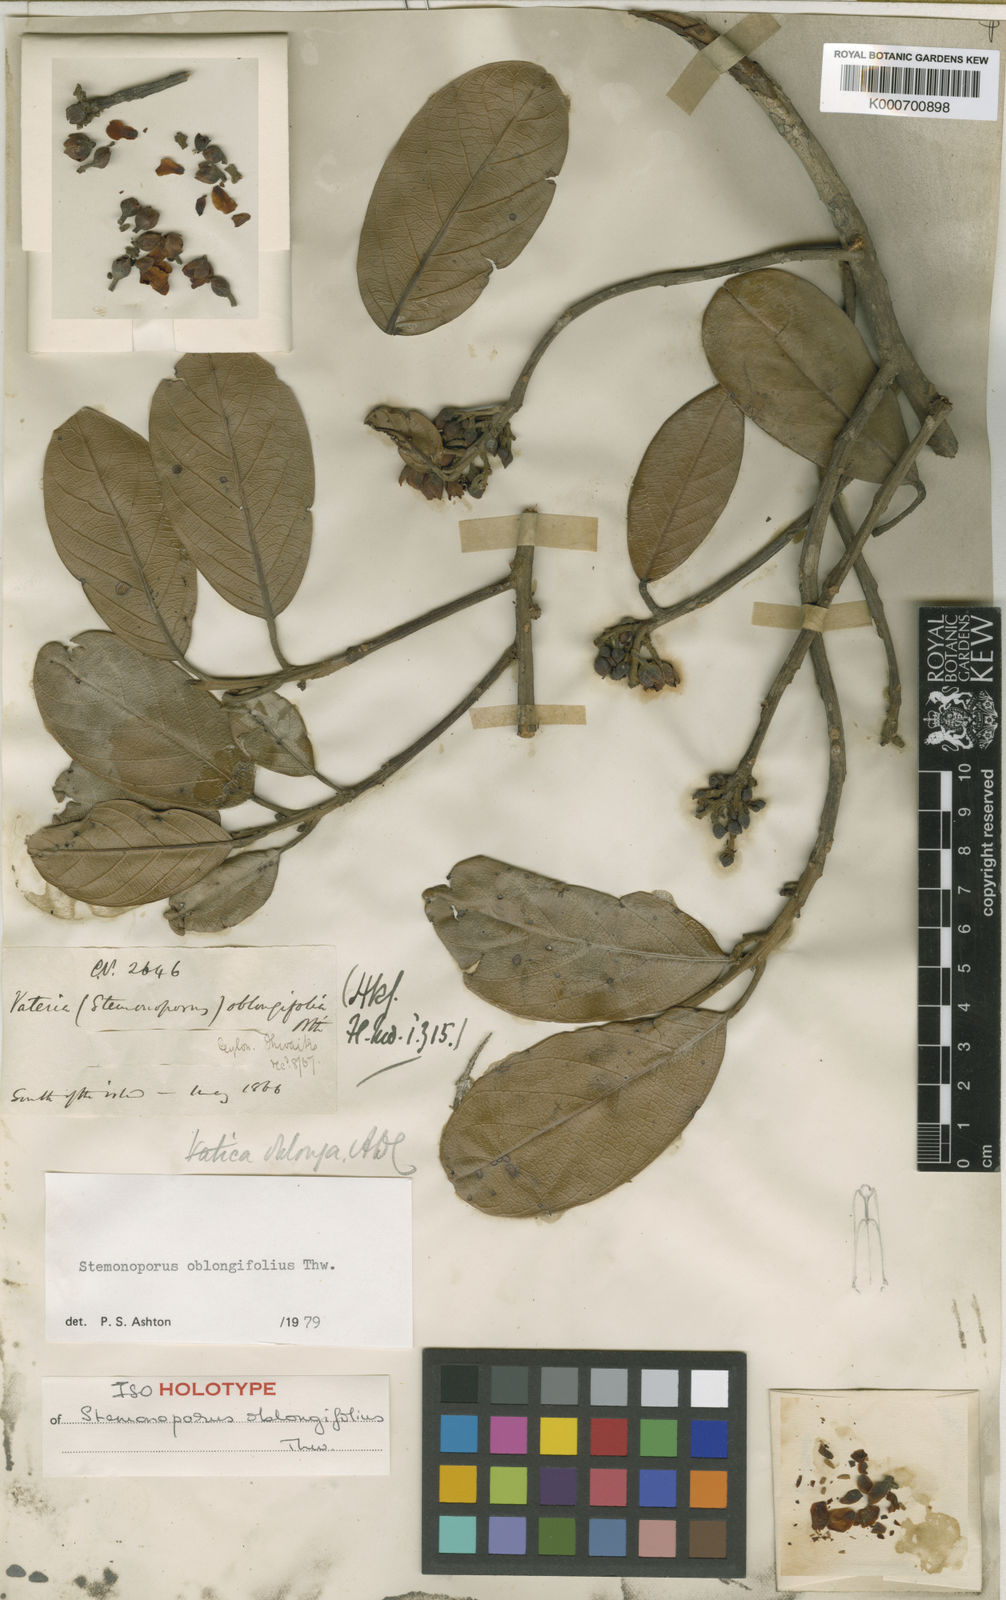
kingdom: Plantae
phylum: Tracheophyta
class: Magnoliopsida
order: Malvales
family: Dipterocarpaceae
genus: Stemonoporus
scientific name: Stemonoporus oblongifolius
